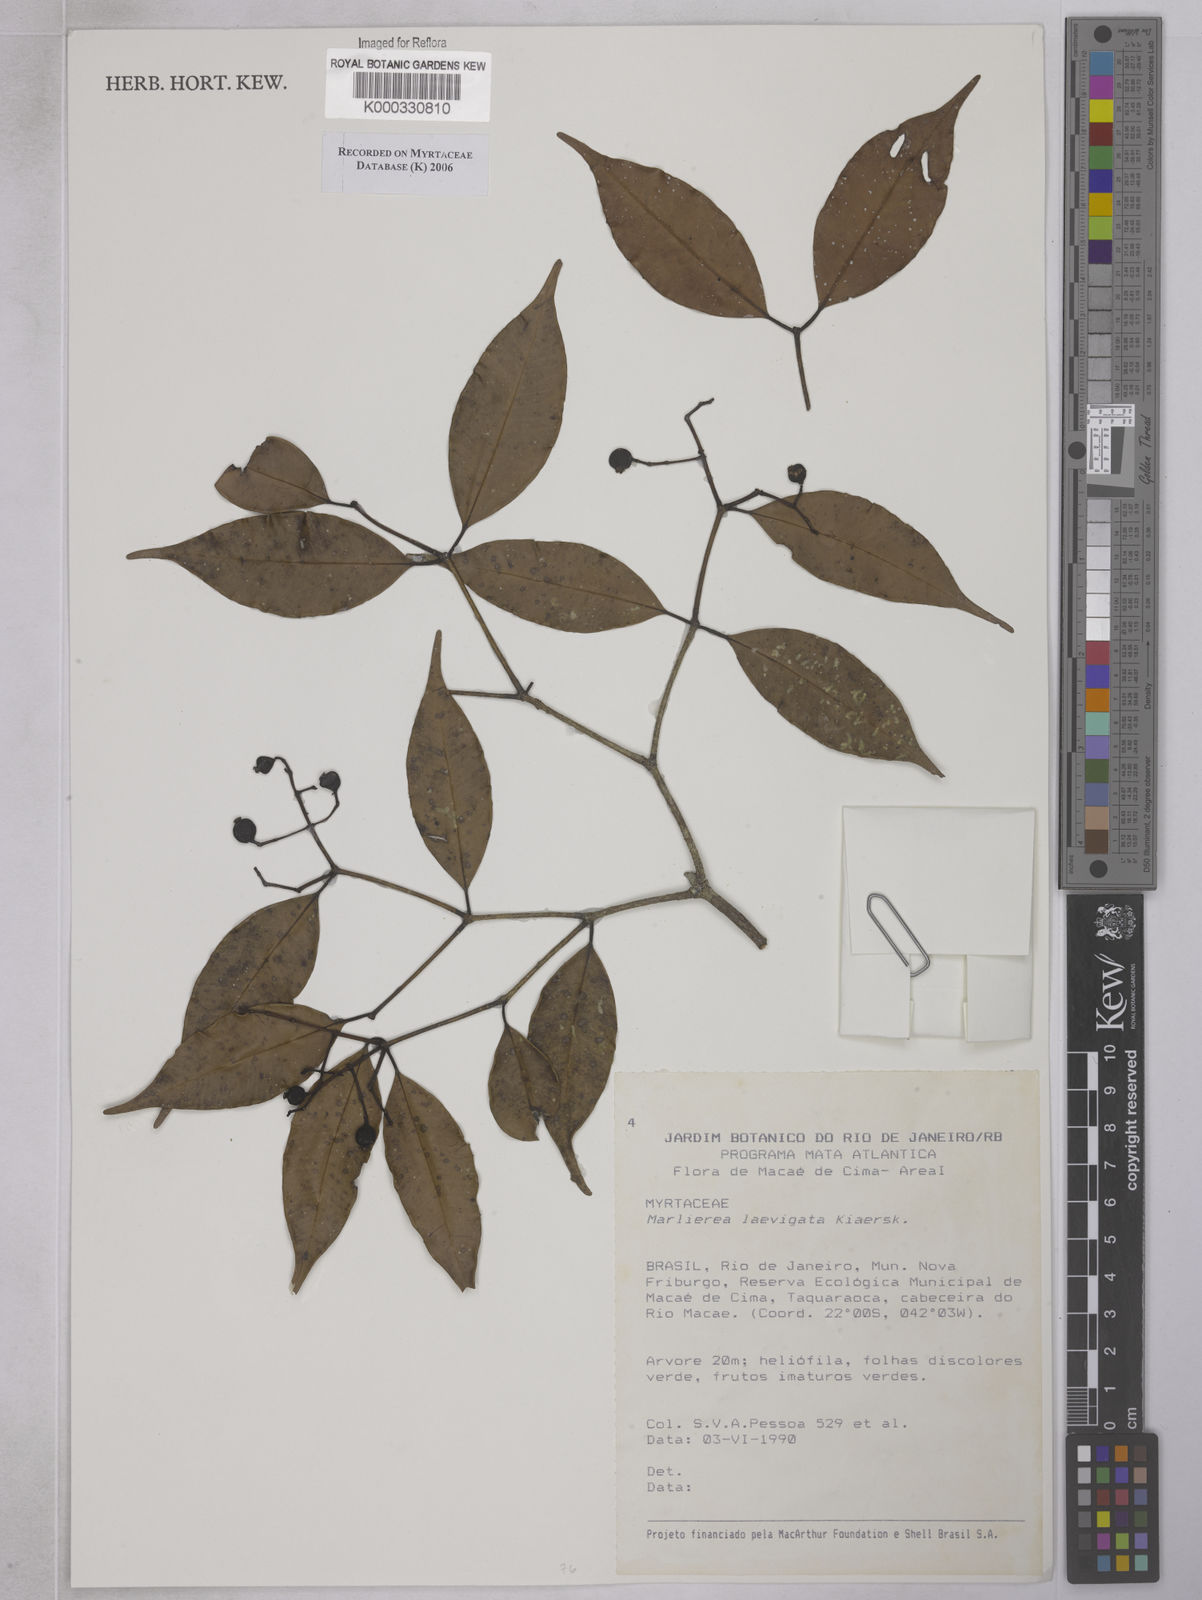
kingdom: Plantae
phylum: Tracheophyta
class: Magnoliopsida
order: Myrtales
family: Myrtaceae
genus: Myrcia
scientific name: Myrcia multipunctata
